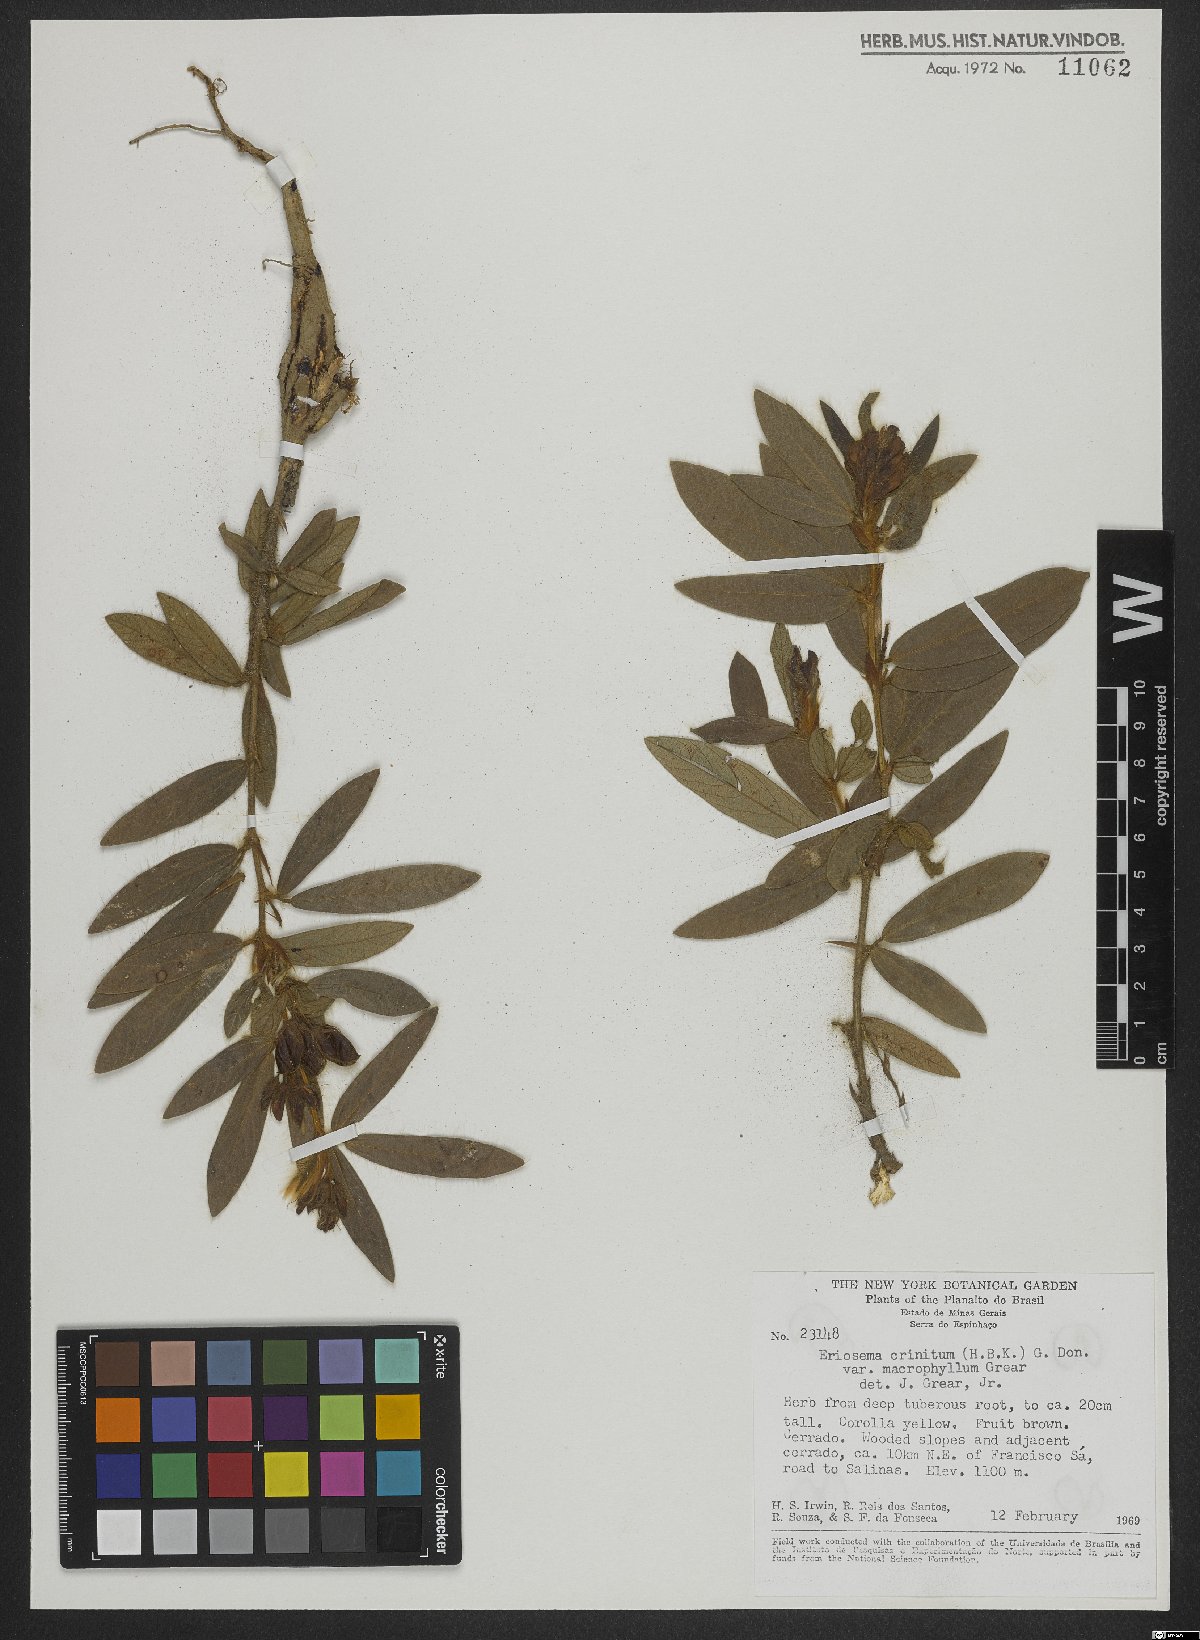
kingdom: Plantae
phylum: Tracheophyta
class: Magnoliopsida
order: Fabales
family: Fabaceae
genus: Eriosema
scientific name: Eriosema campestre
